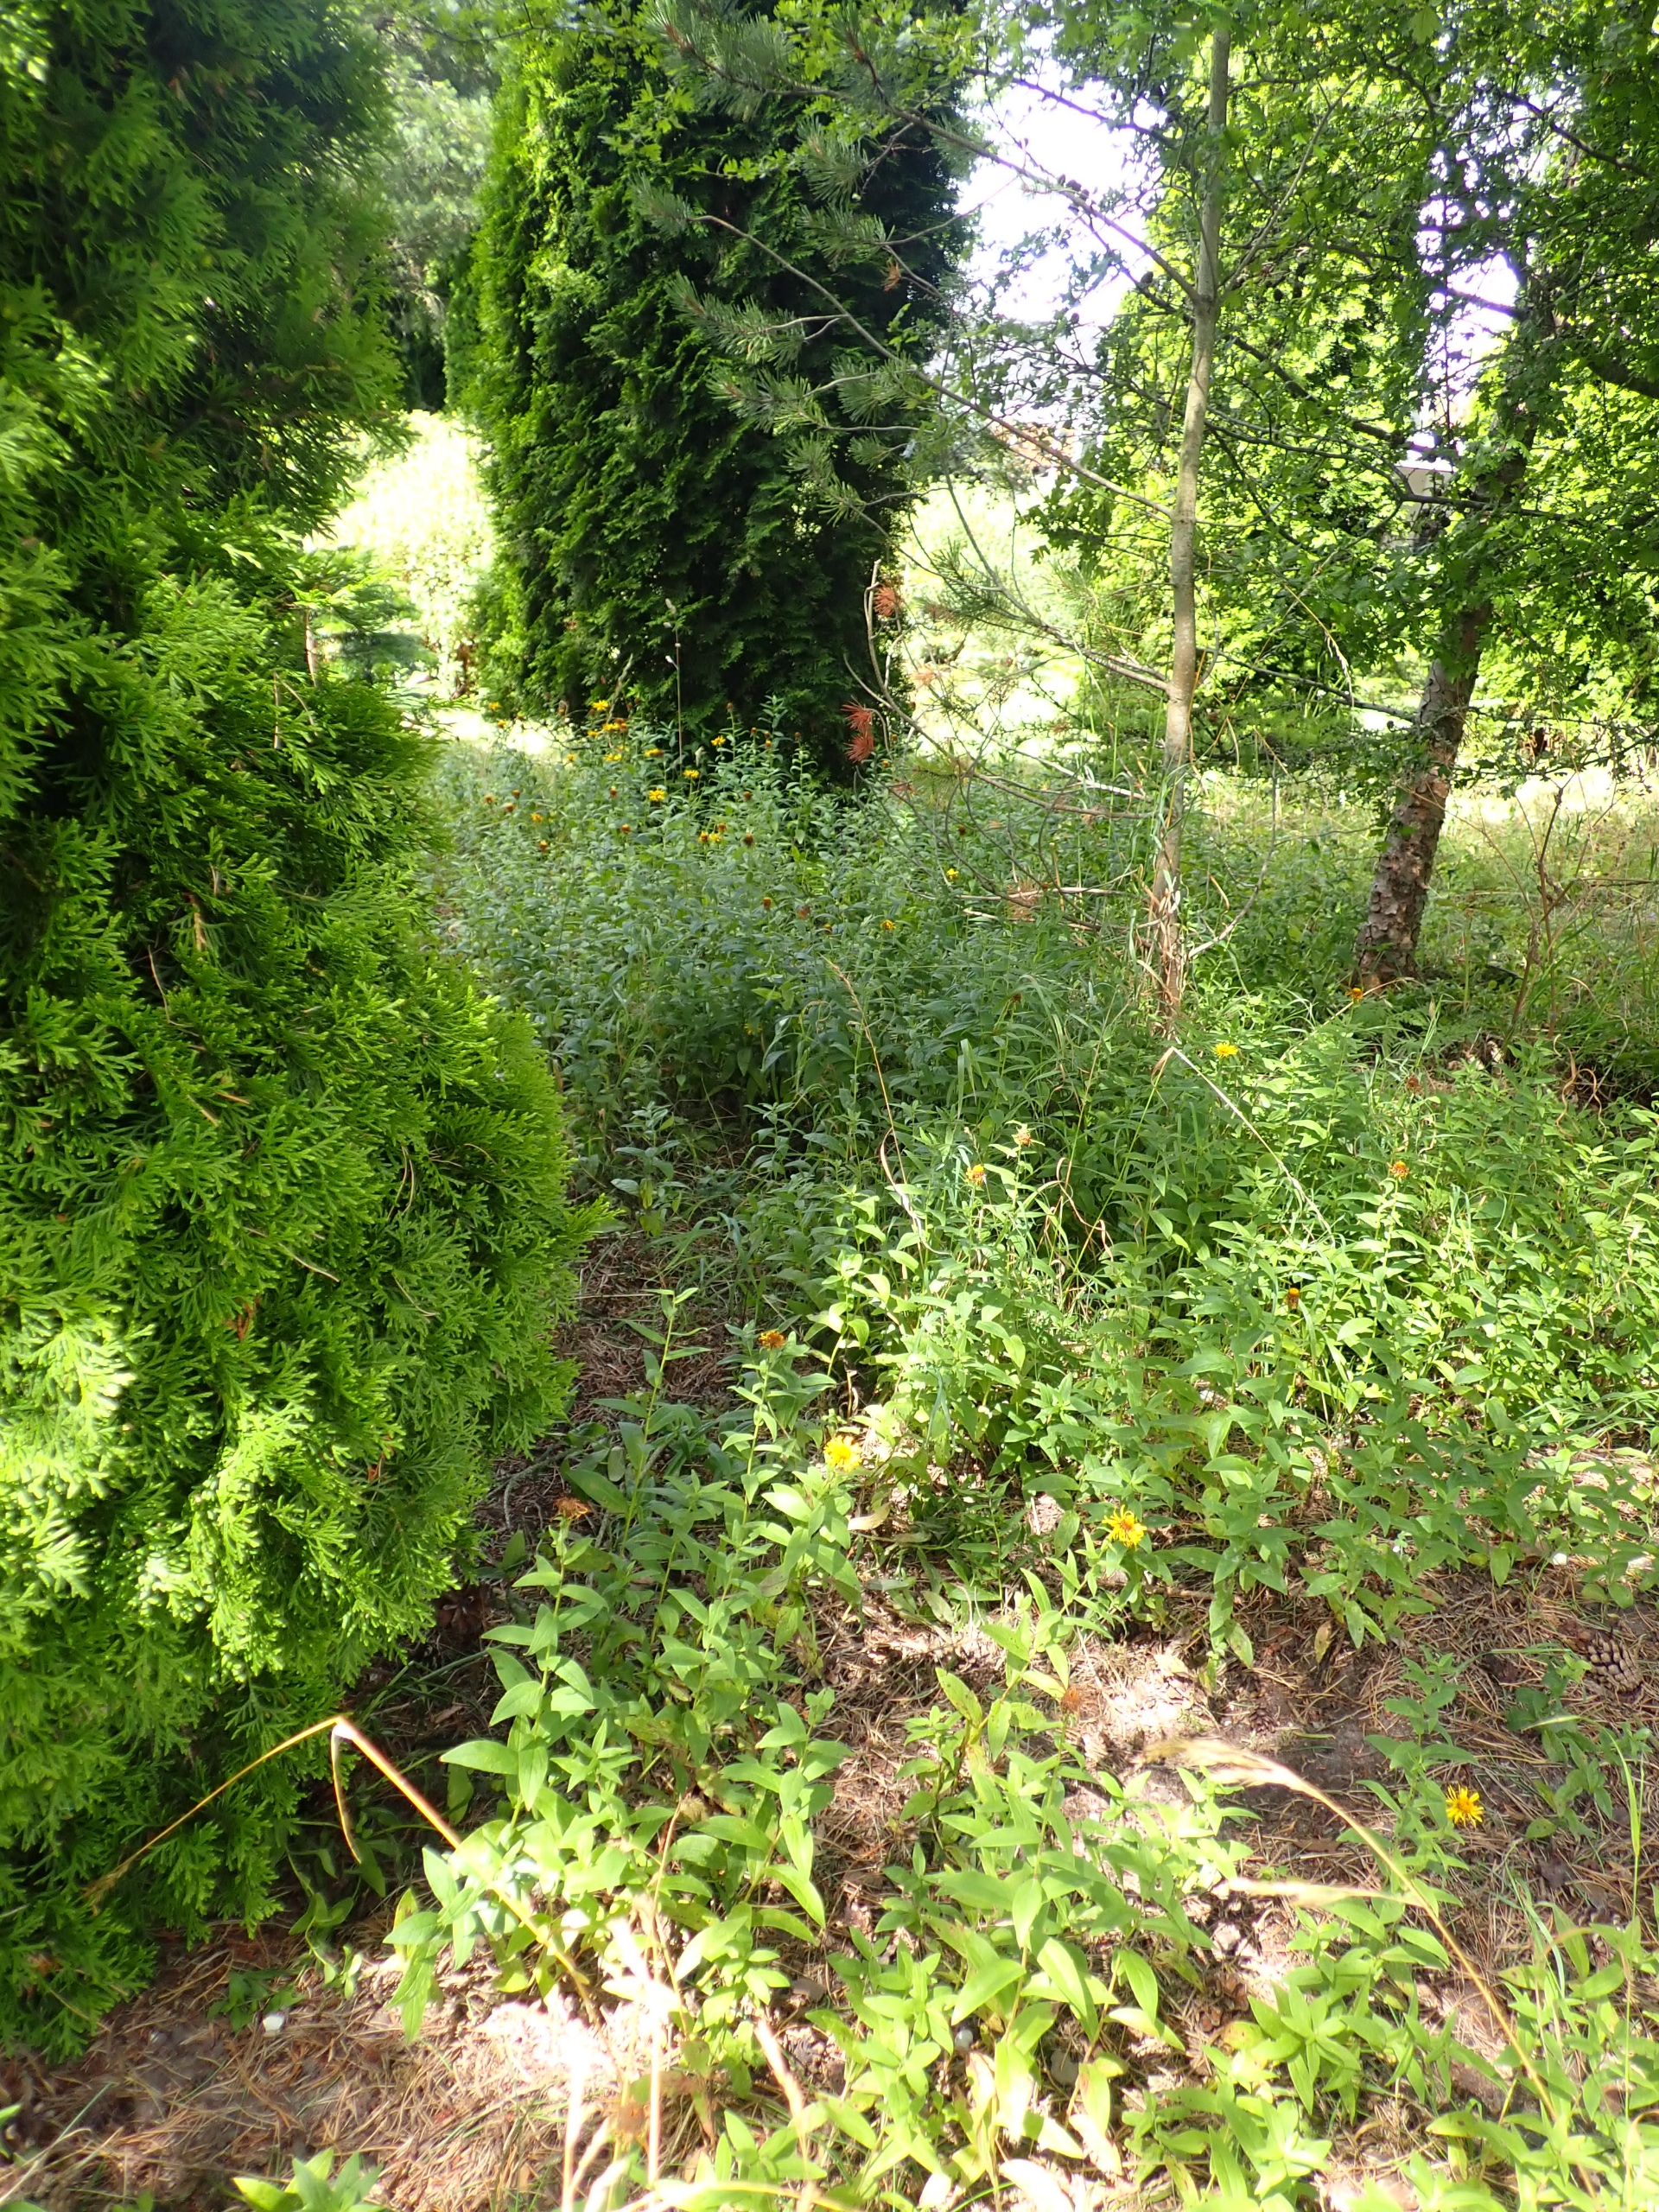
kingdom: Plantae
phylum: Tracheophyta
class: Magnoliopsida
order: Asterales
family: Asteraceae
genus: Pentanema
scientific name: Pentanema salicinum
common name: Pile-alant
